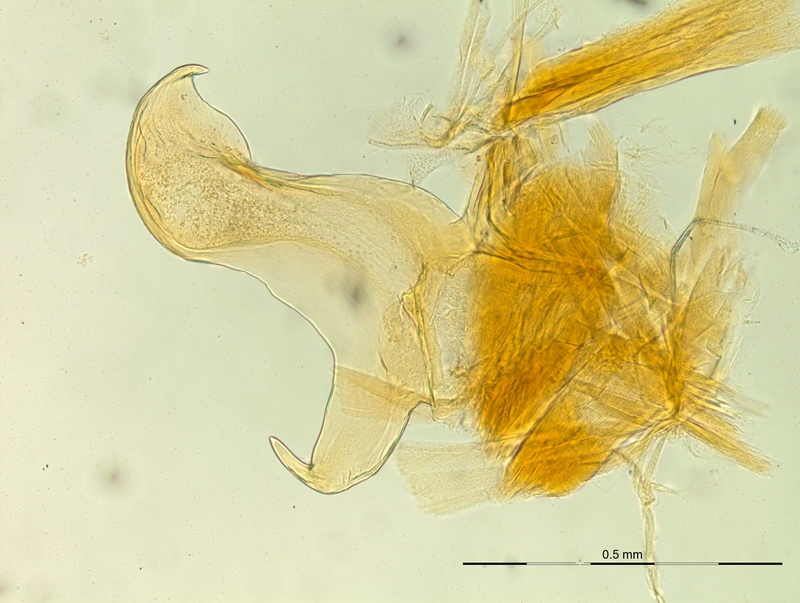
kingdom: Animalia
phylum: Arthropoda
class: Diplopoda
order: Chordeumatida
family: Craspedosomatidae
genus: Macheiriophoron
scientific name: Macheiriophoron alemannicum
